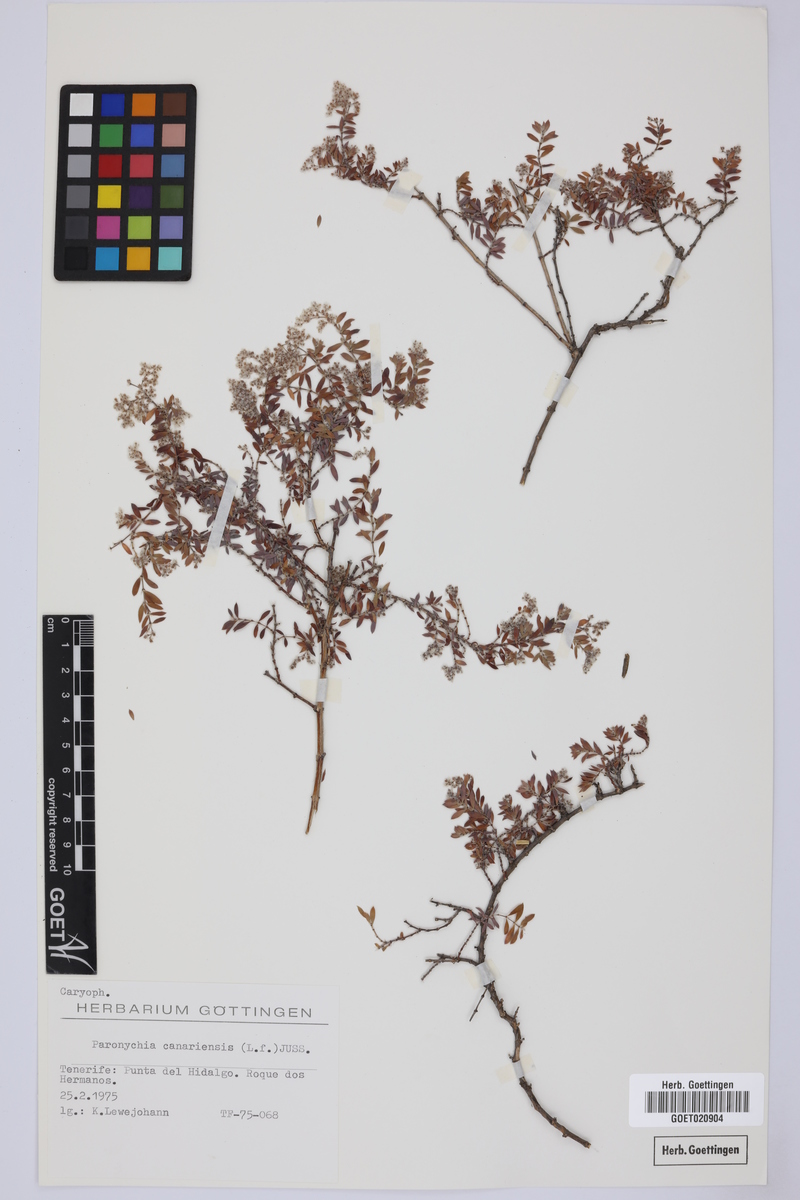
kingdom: Plantae
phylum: Tracheophyta
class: Magnoliopsida
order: Caryophyllales
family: Caryophyllaceae
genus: Paronychia
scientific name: Paronychia canariensis
